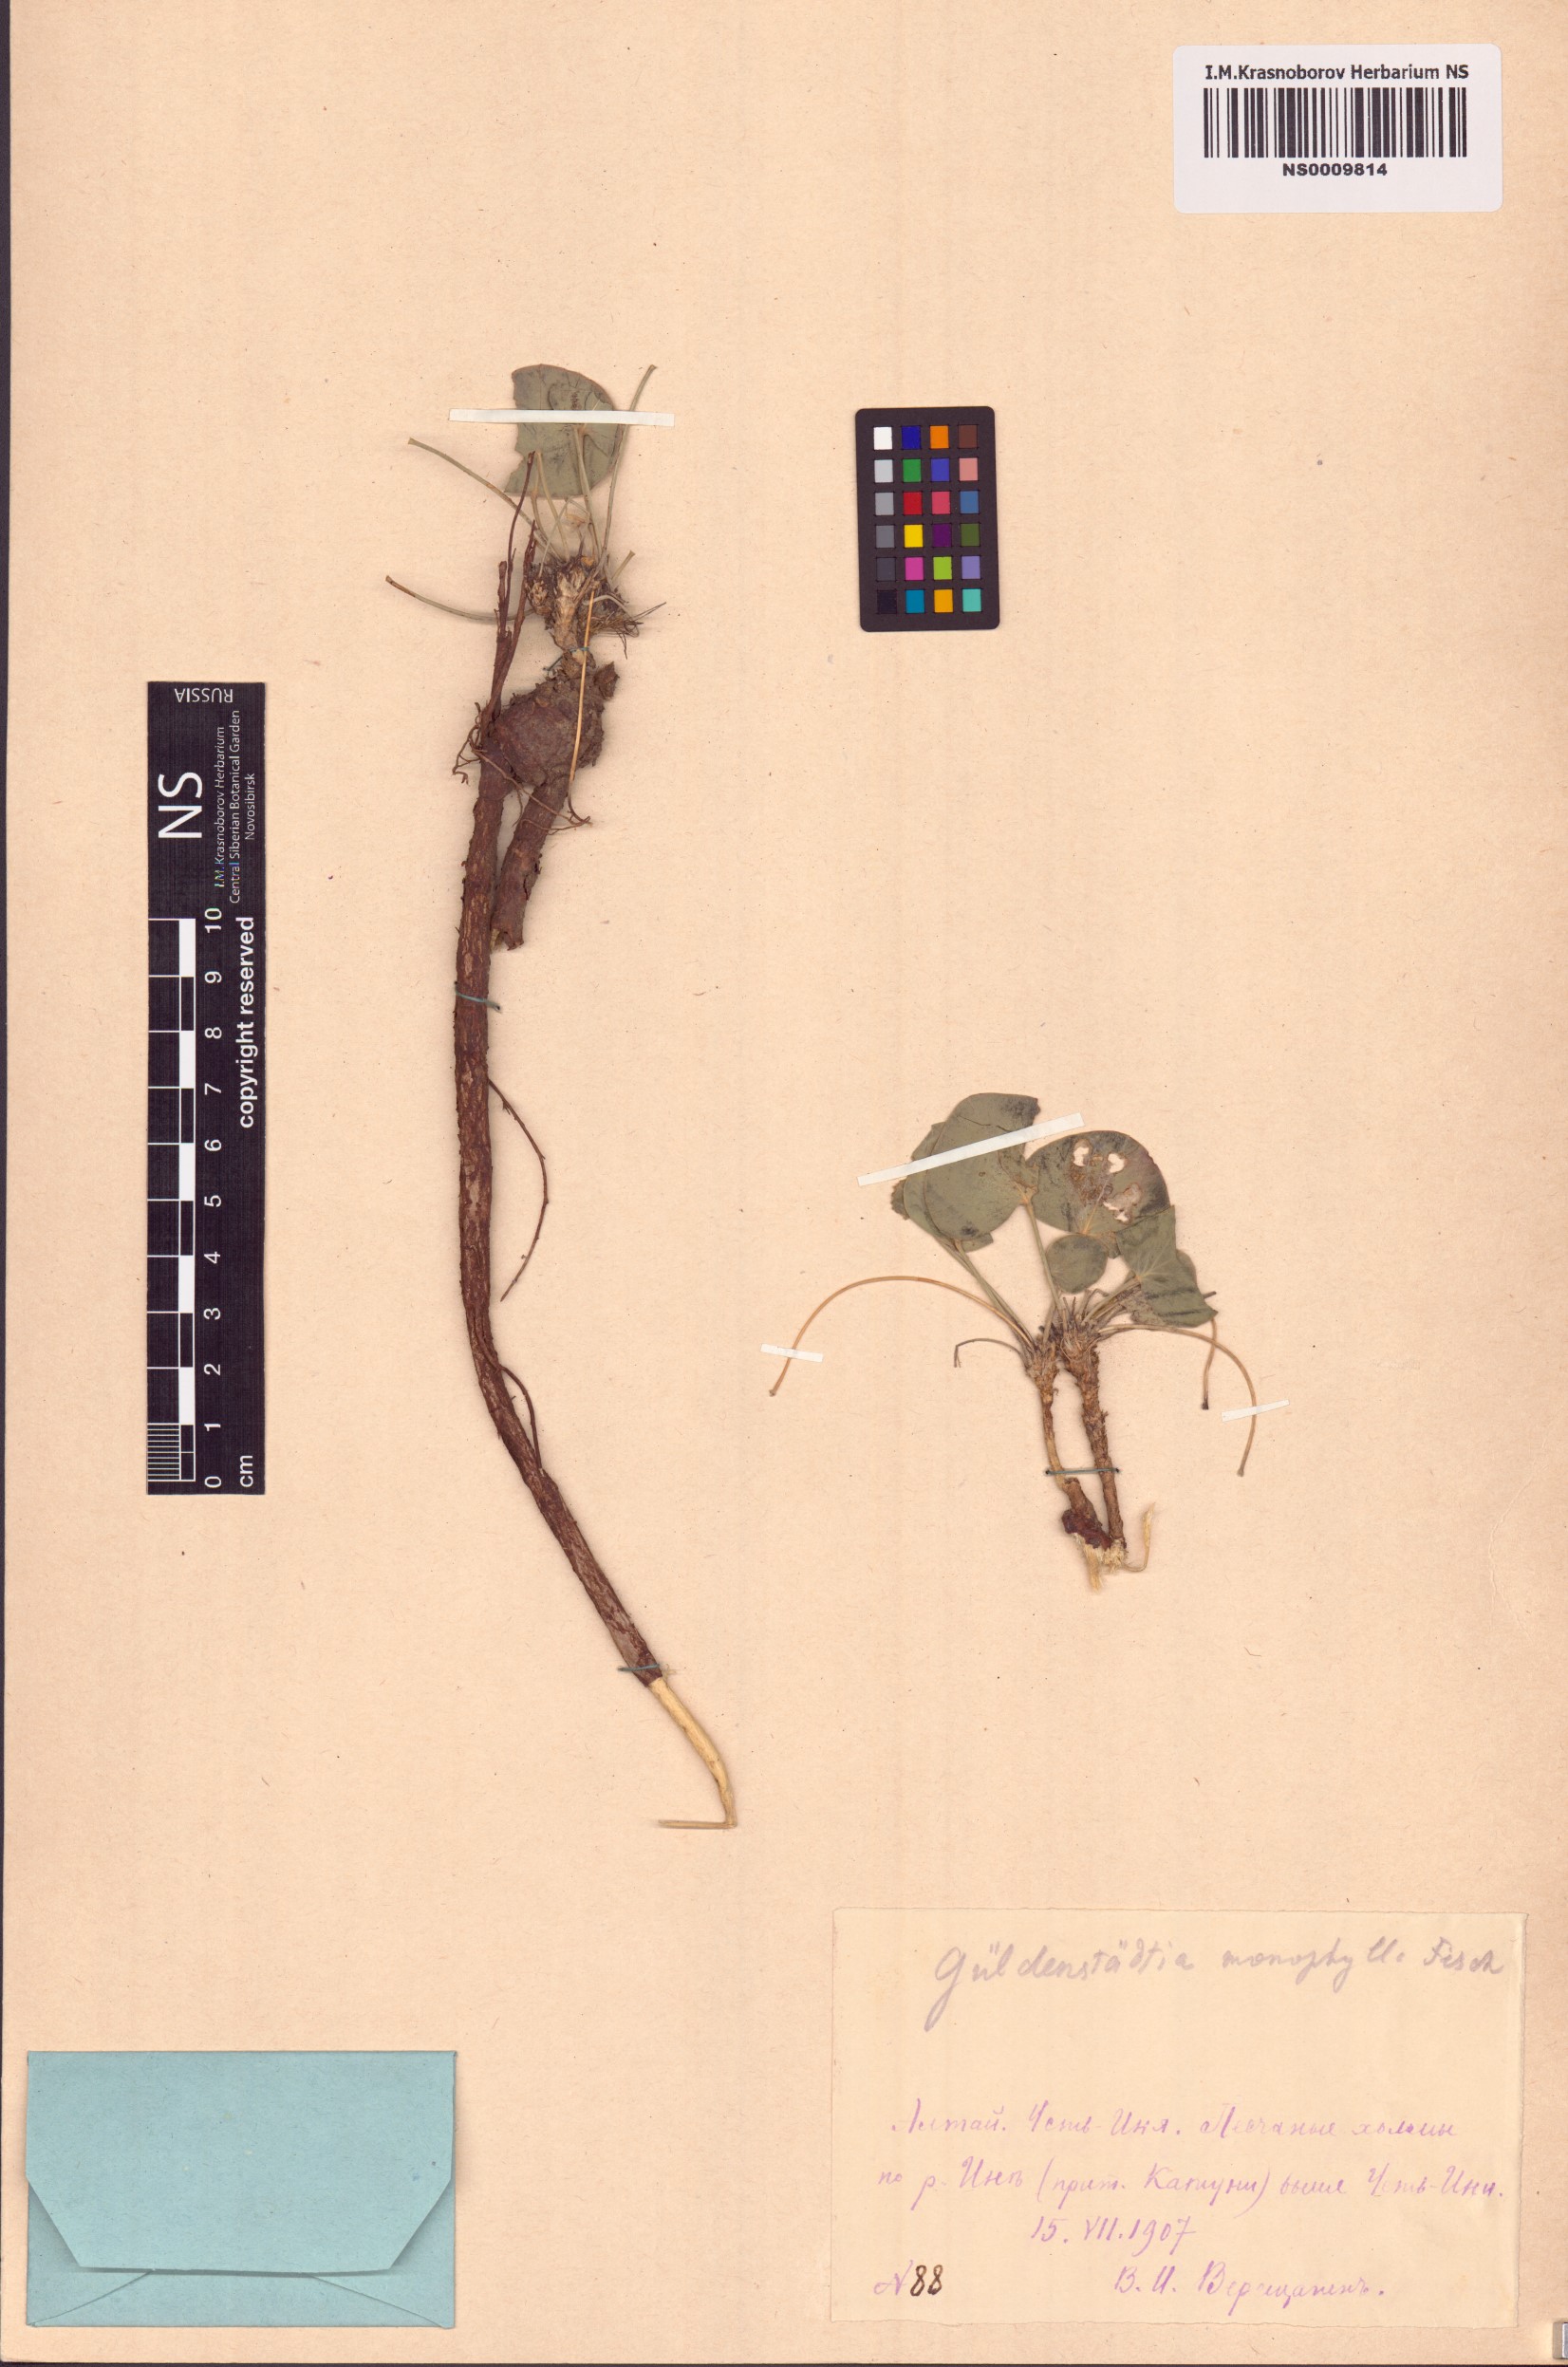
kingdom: Plantae
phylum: Tracheophyta
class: Magnoliopsida
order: Fabales
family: Fabaceae
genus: Gueldenstaedtia
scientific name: Gueldenstaedtia monophylla
